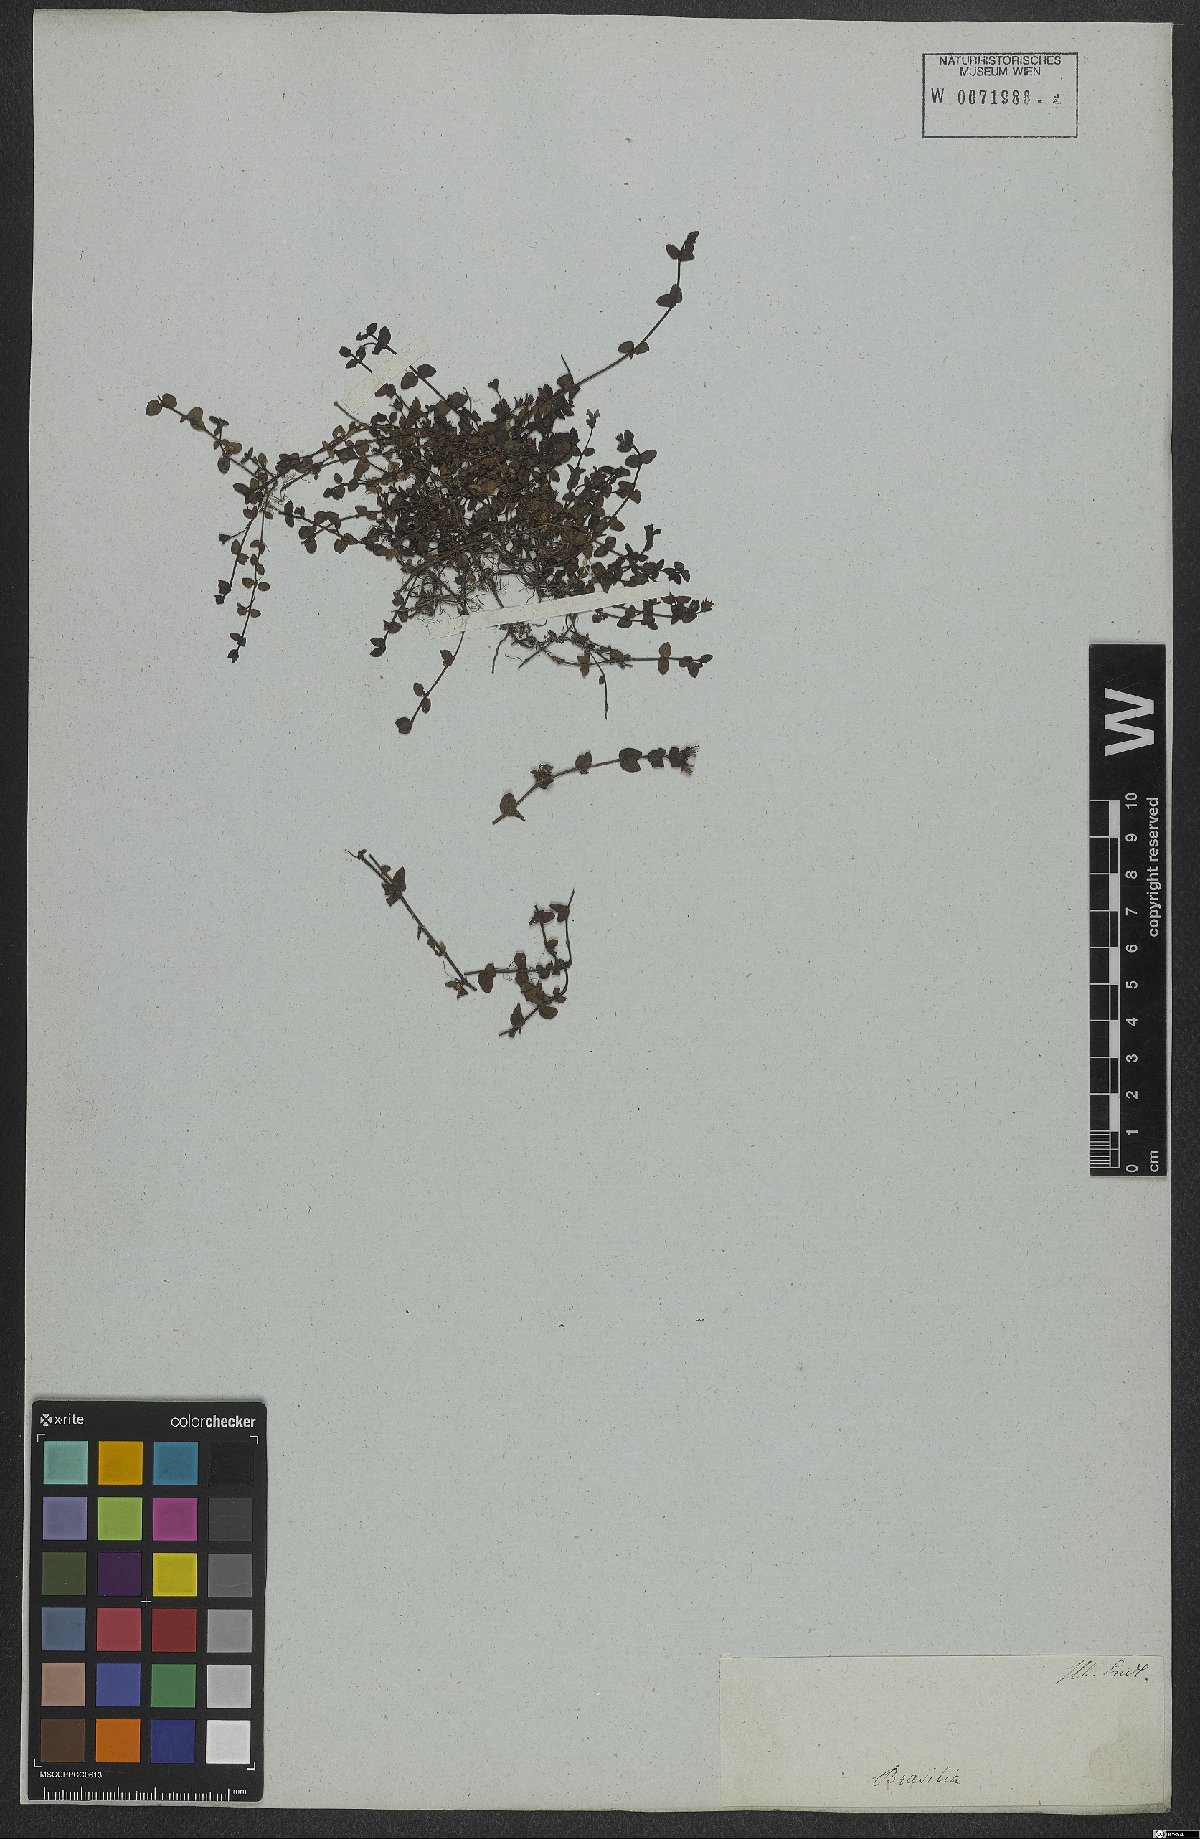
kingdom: Plantae
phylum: Tracheophyta
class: Magnoliopsida
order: Gentianales
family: Rubiaceae
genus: Arcytophyllum
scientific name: Arcytophyllum
